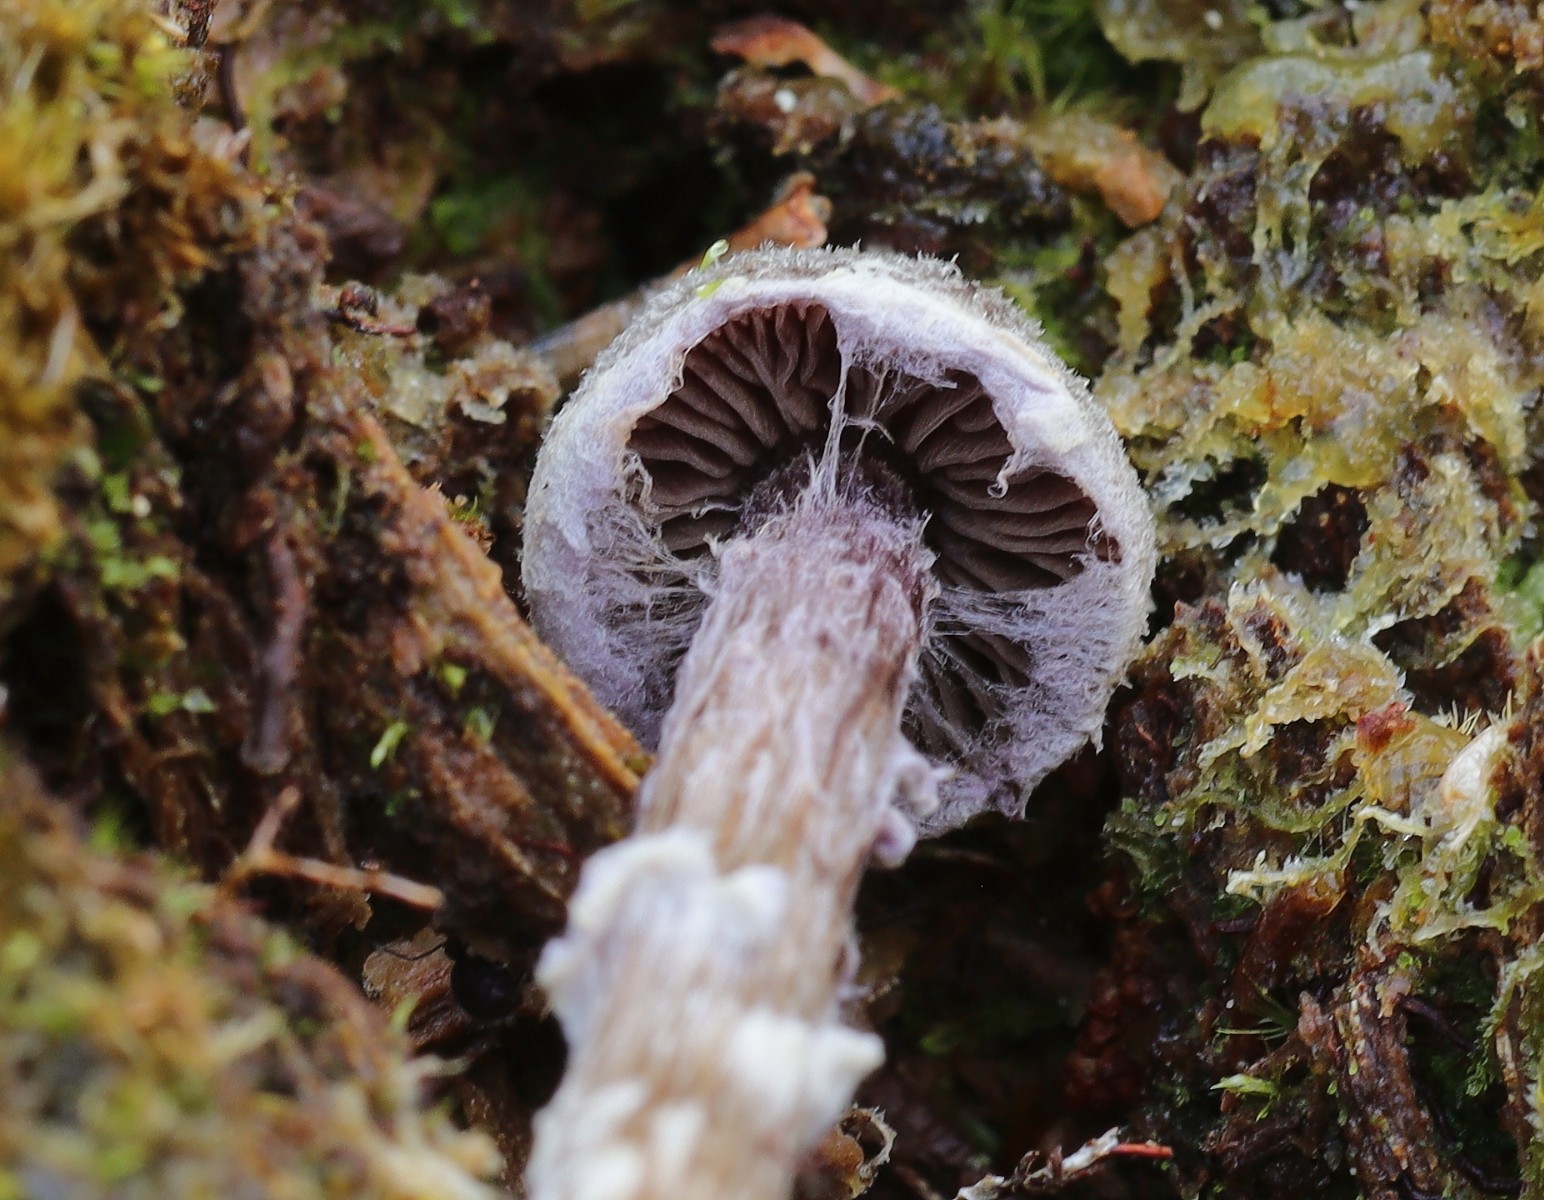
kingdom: Fungi
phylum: Basidiomycota
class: Agaricomycetes
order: Agaricales
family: Cortinariaceae
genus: Cortinarius
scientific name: Cortinarius flexipes
